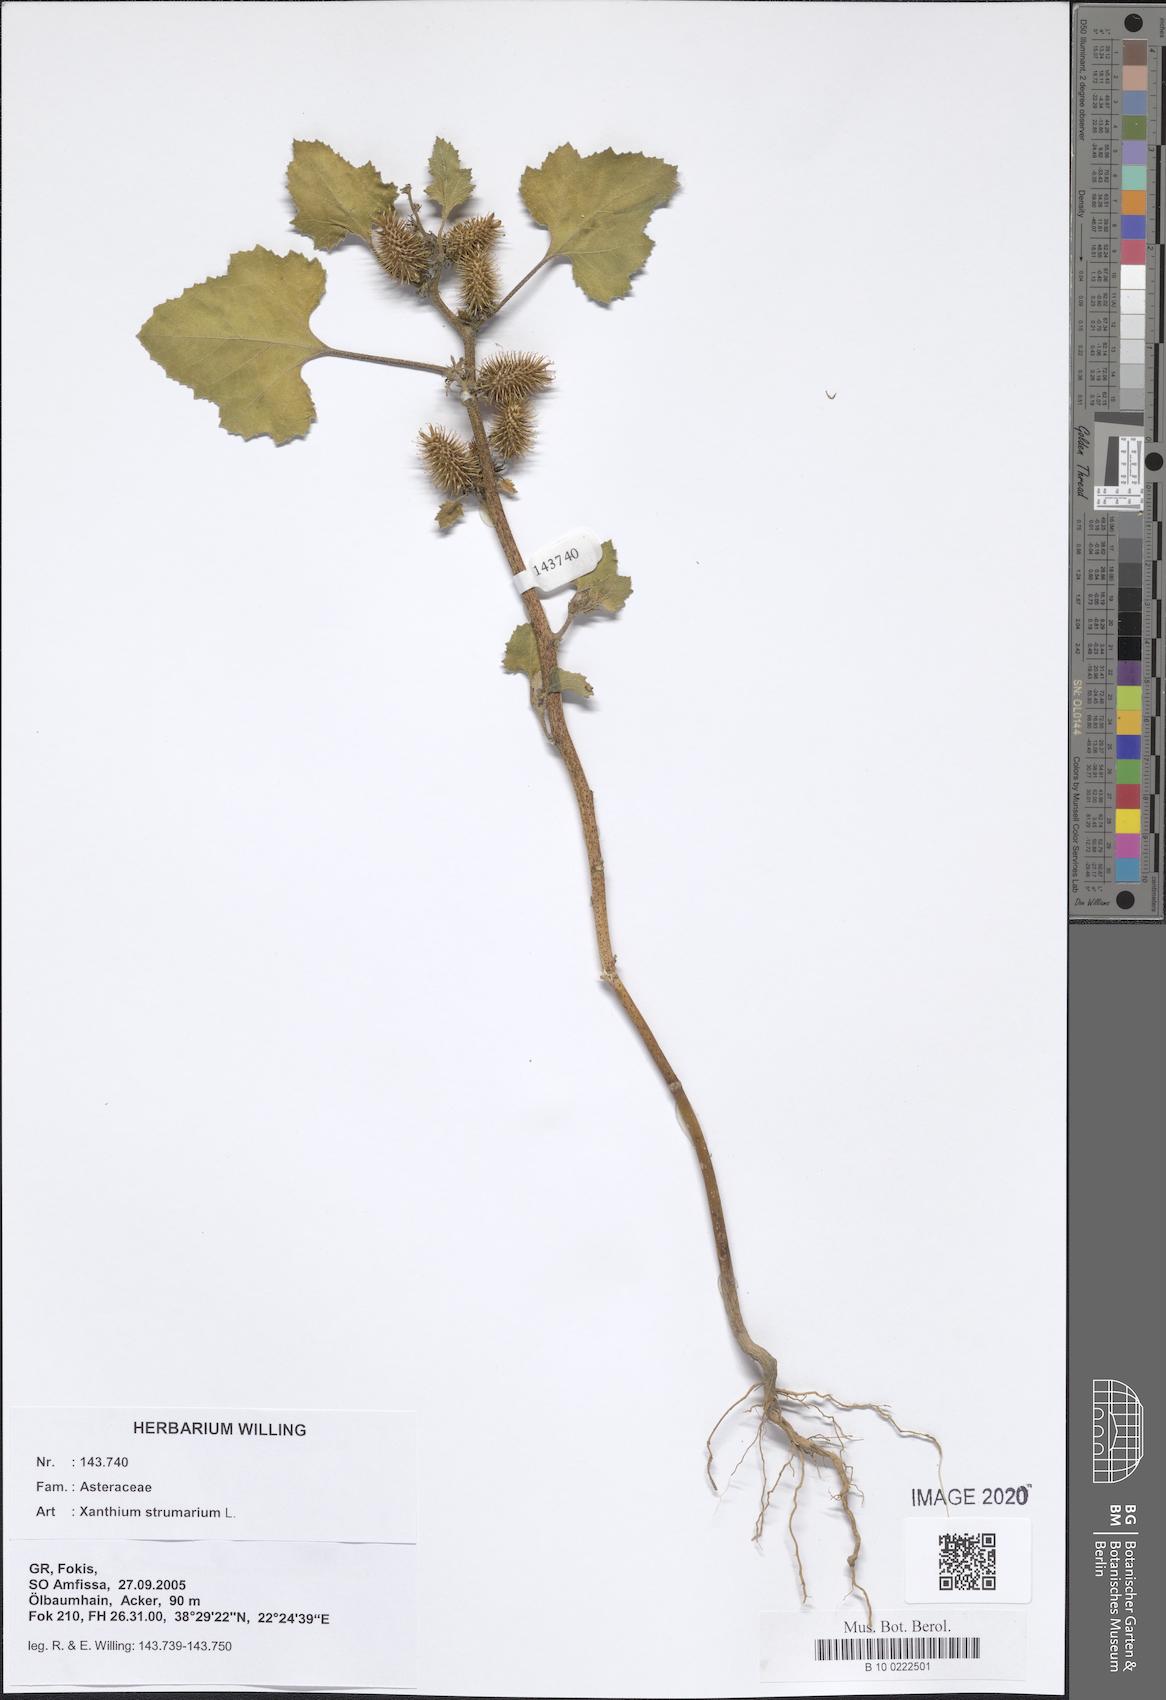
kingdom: Plantae
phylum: Tracheophyta
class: Magnoliopsida
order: Asterales
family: Asteraceae
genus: Xanthium
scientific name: Xanthium strumarium
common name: Rough cocklebur
